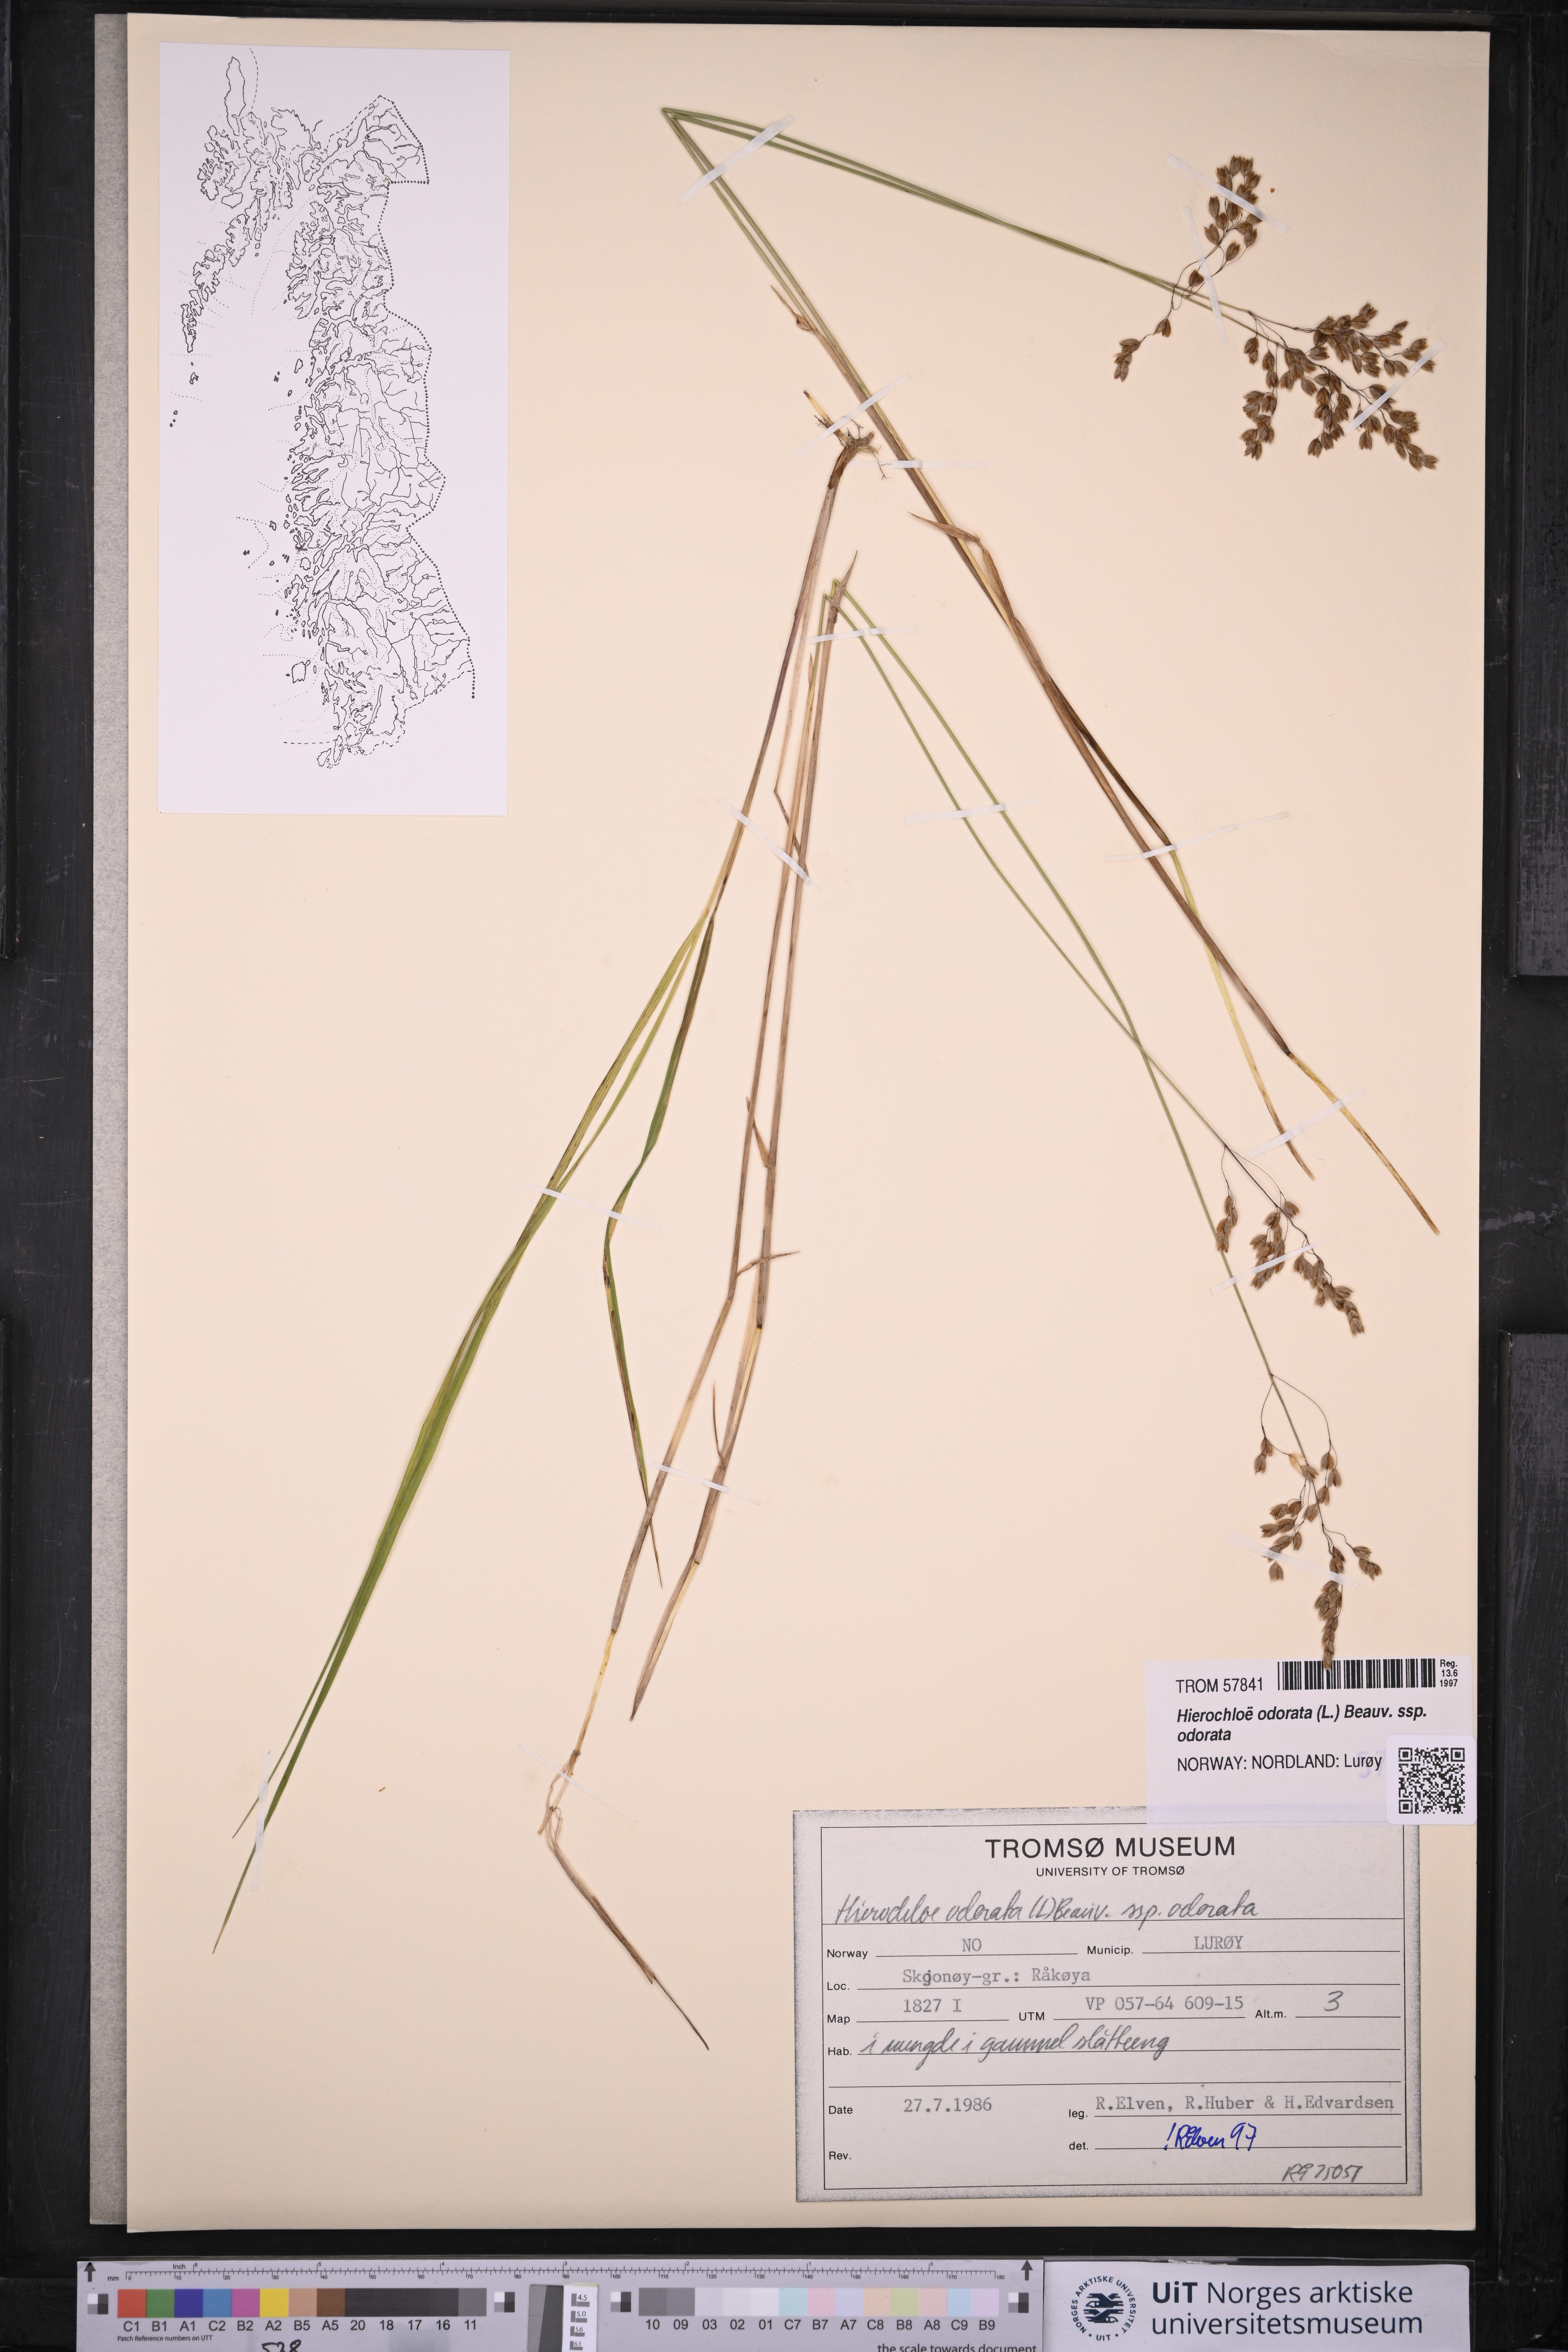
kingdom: Plantae
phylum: Tracheophyta
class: Liliopsida
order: Poales
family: Poaceae
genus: Anthoxanthum
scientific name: Anthoxanthum nitens
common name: Holy grass
